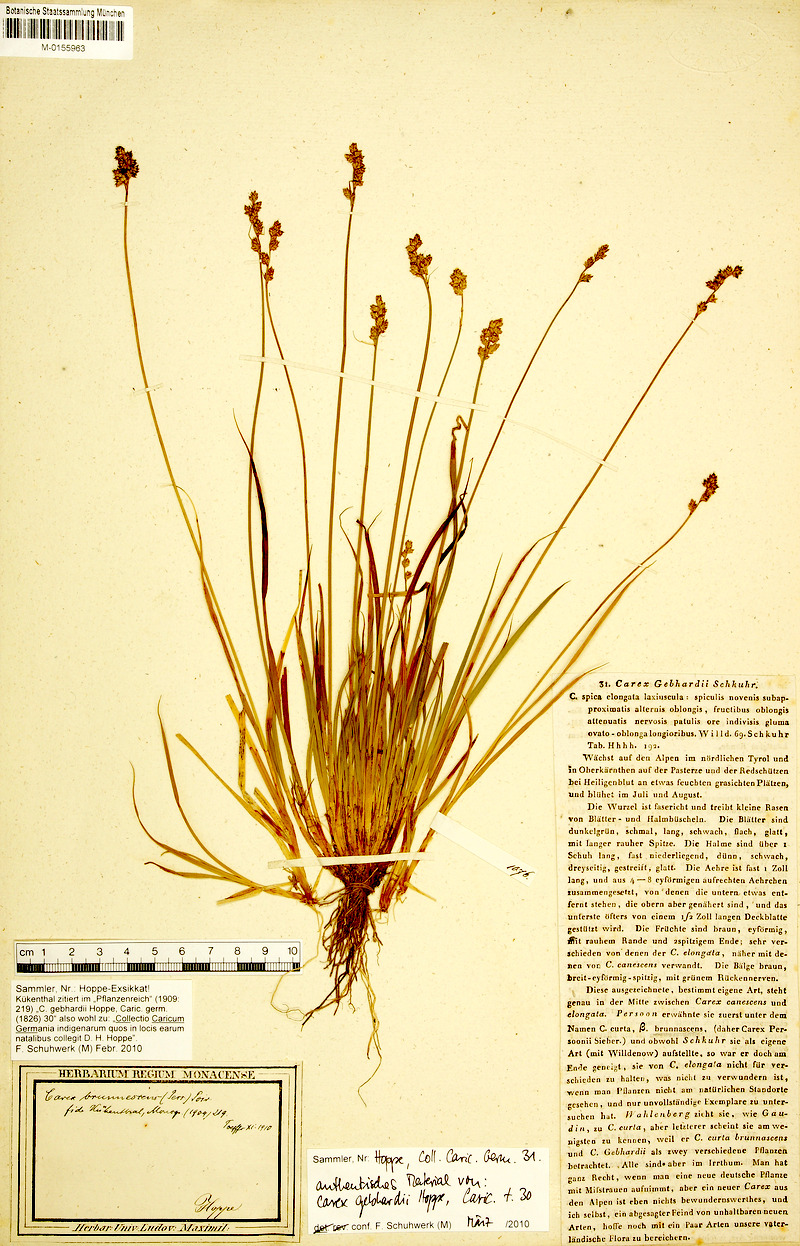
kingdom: Plantae
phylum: Tracheophyta
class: Liliopsida
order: Poales
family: Cyperaceae
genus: Carex
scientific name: Carex brunnescens
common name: Brown sedge
